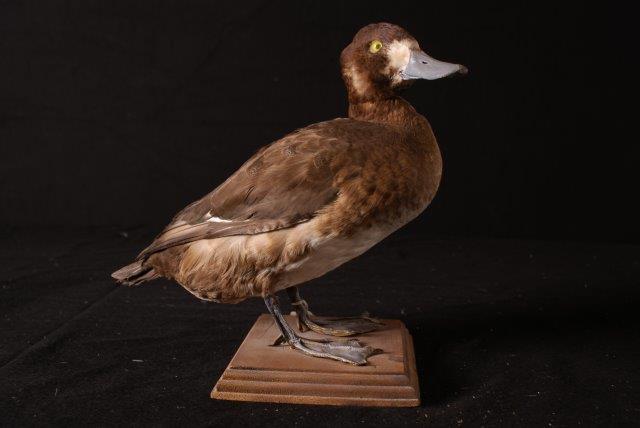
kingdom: Animalia
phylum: Chordata
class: Aves
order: Anseriformes
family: Anatidae
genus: Aythya
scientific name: Aythya marila
